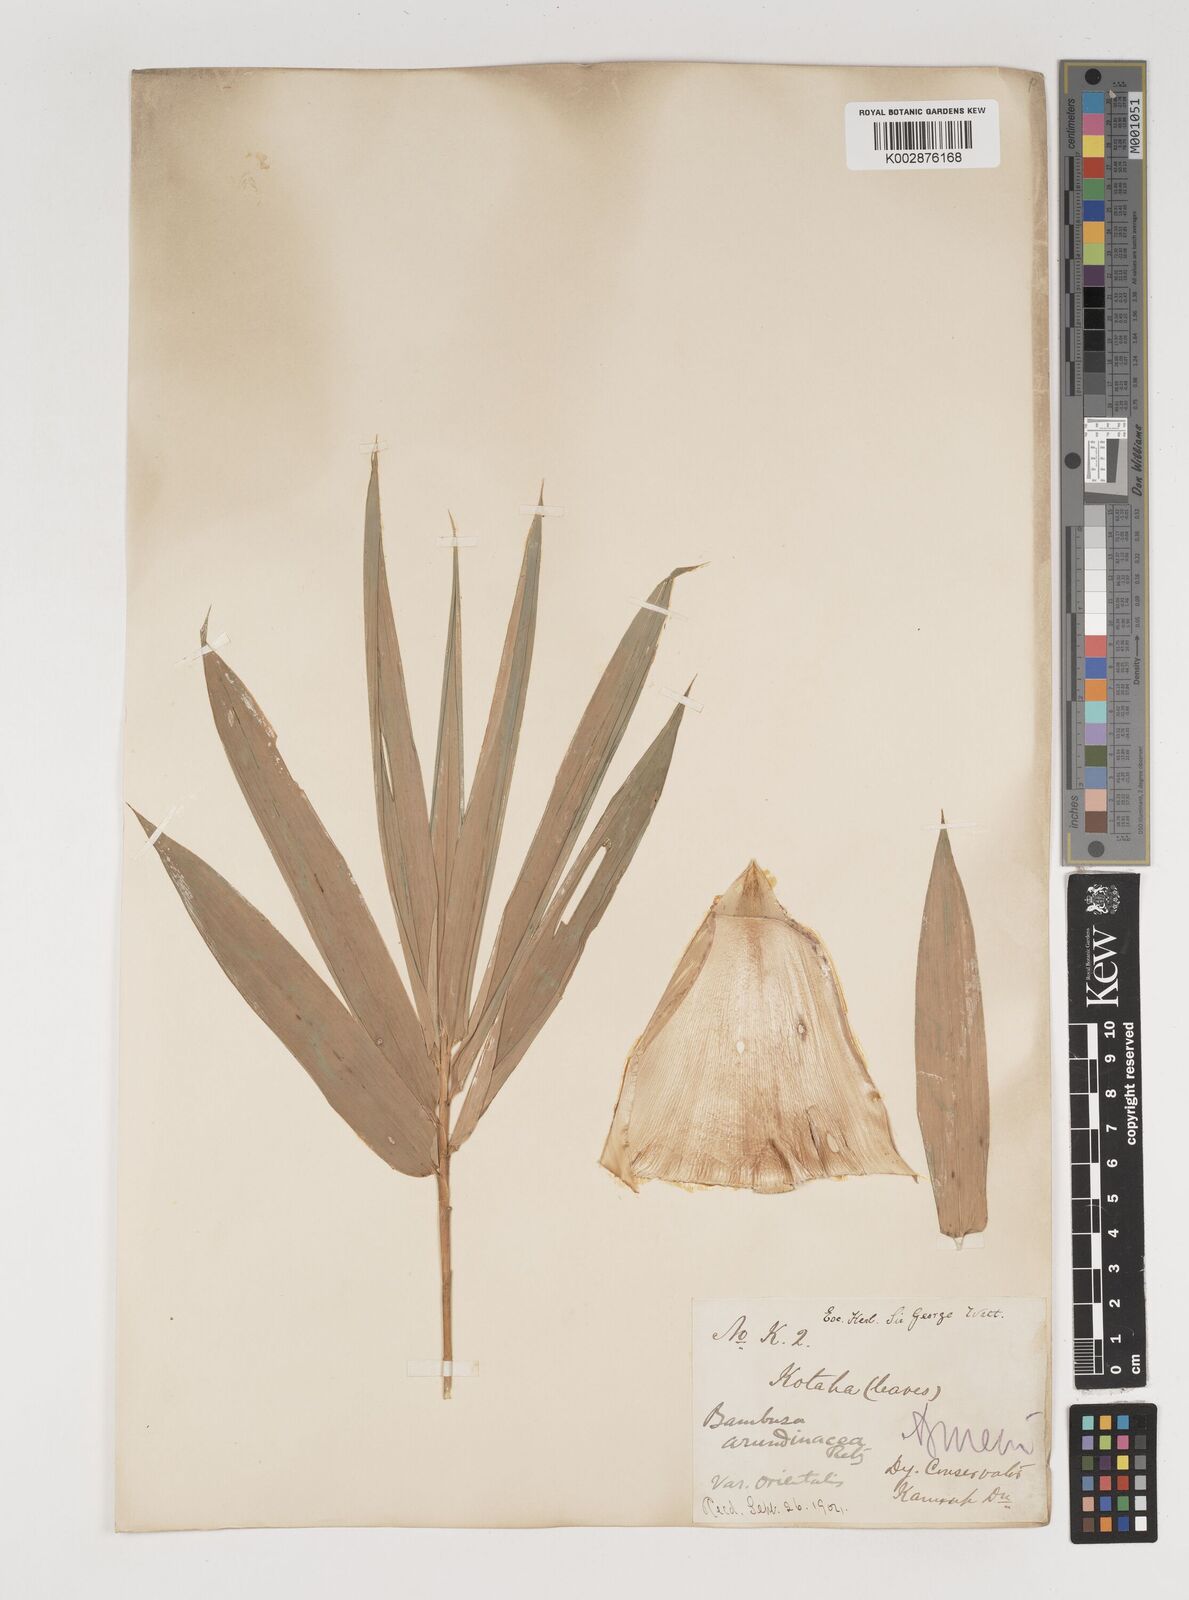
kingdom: Plantae
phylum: Tracheophyta
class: Liliopsida
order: Poales
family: Poaceae
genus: Bambusa
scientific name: Bambusa bambos
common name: Indian thorny bamboo
